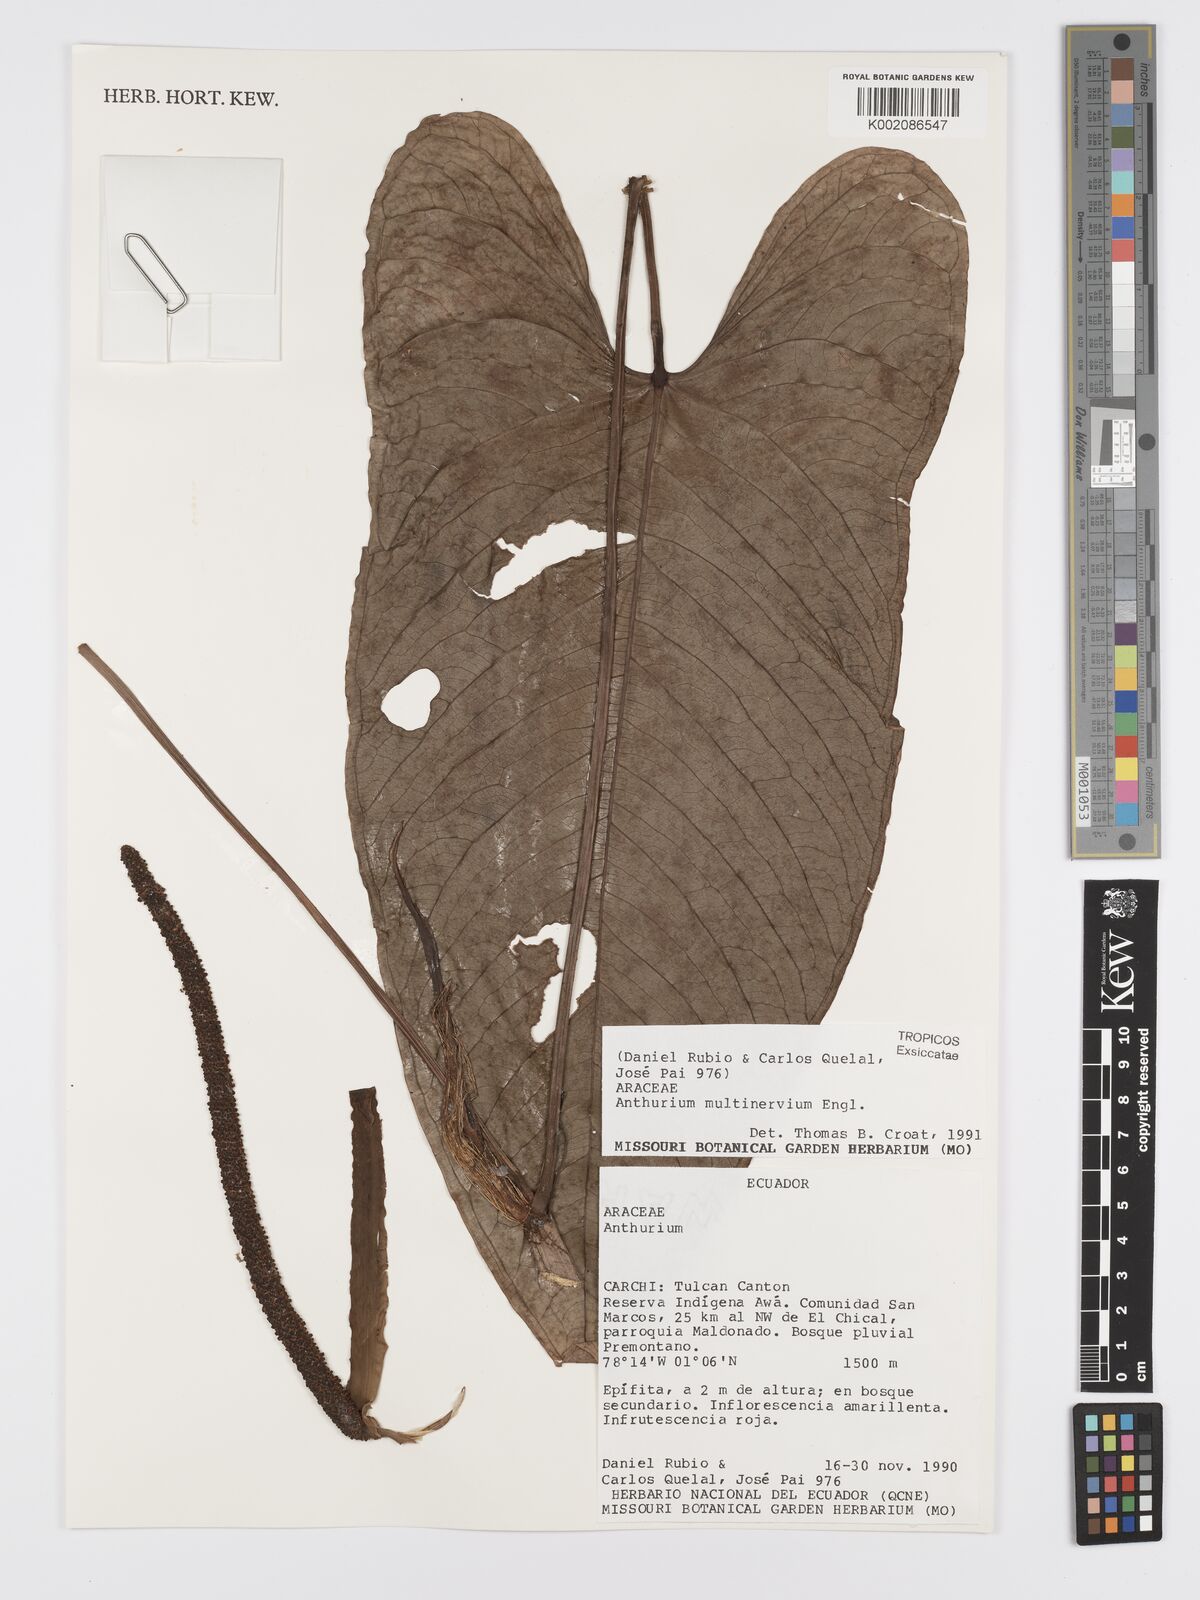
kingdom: Plantae
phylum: Tracheophyta
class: Liliopsida
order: Alismatales
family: Araceae
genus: Anthurium
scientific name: Anthurium multinervium
